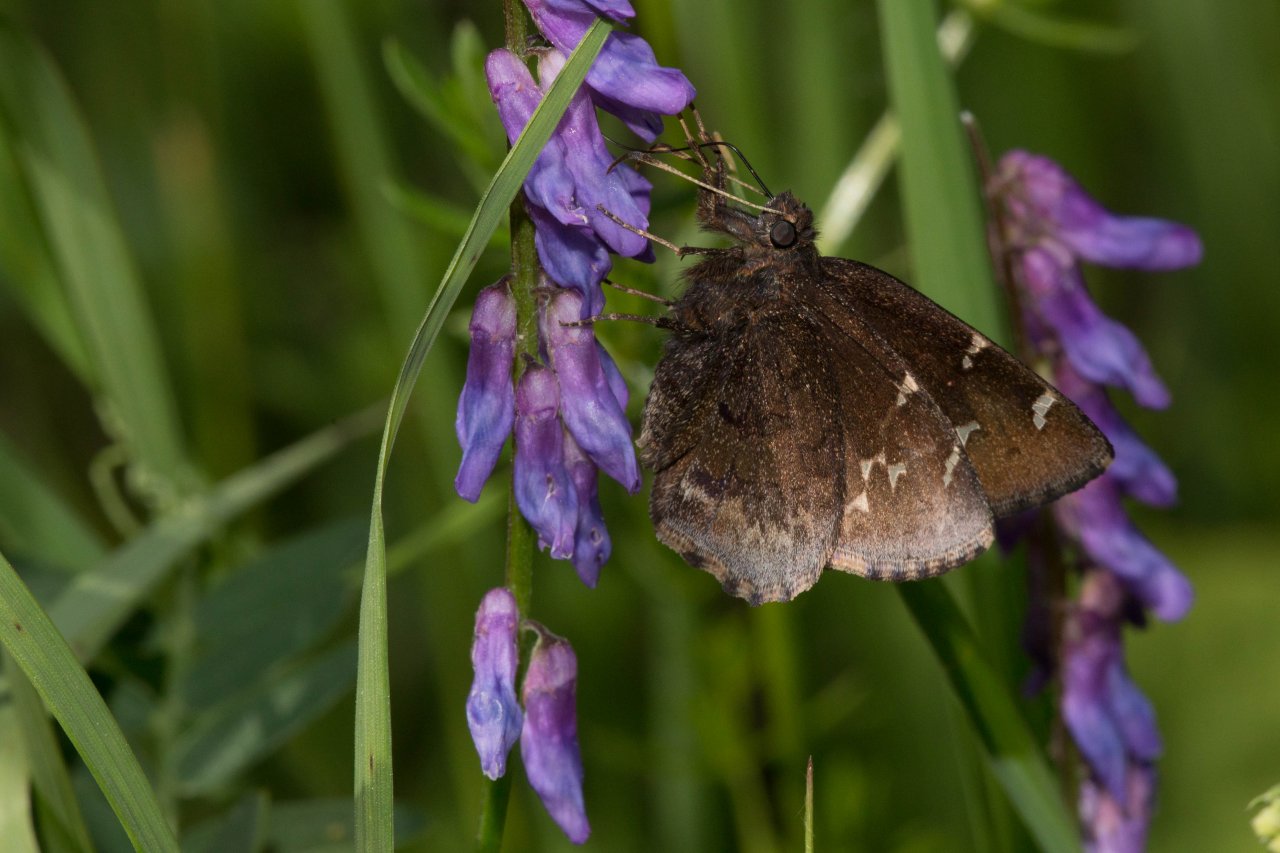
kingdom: Animalia
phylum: Arthropoda
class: Insecta
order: Lepidoptera
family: Hesperiidae
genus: Autochton
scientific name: Autochton
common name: Northern Cloudywing
